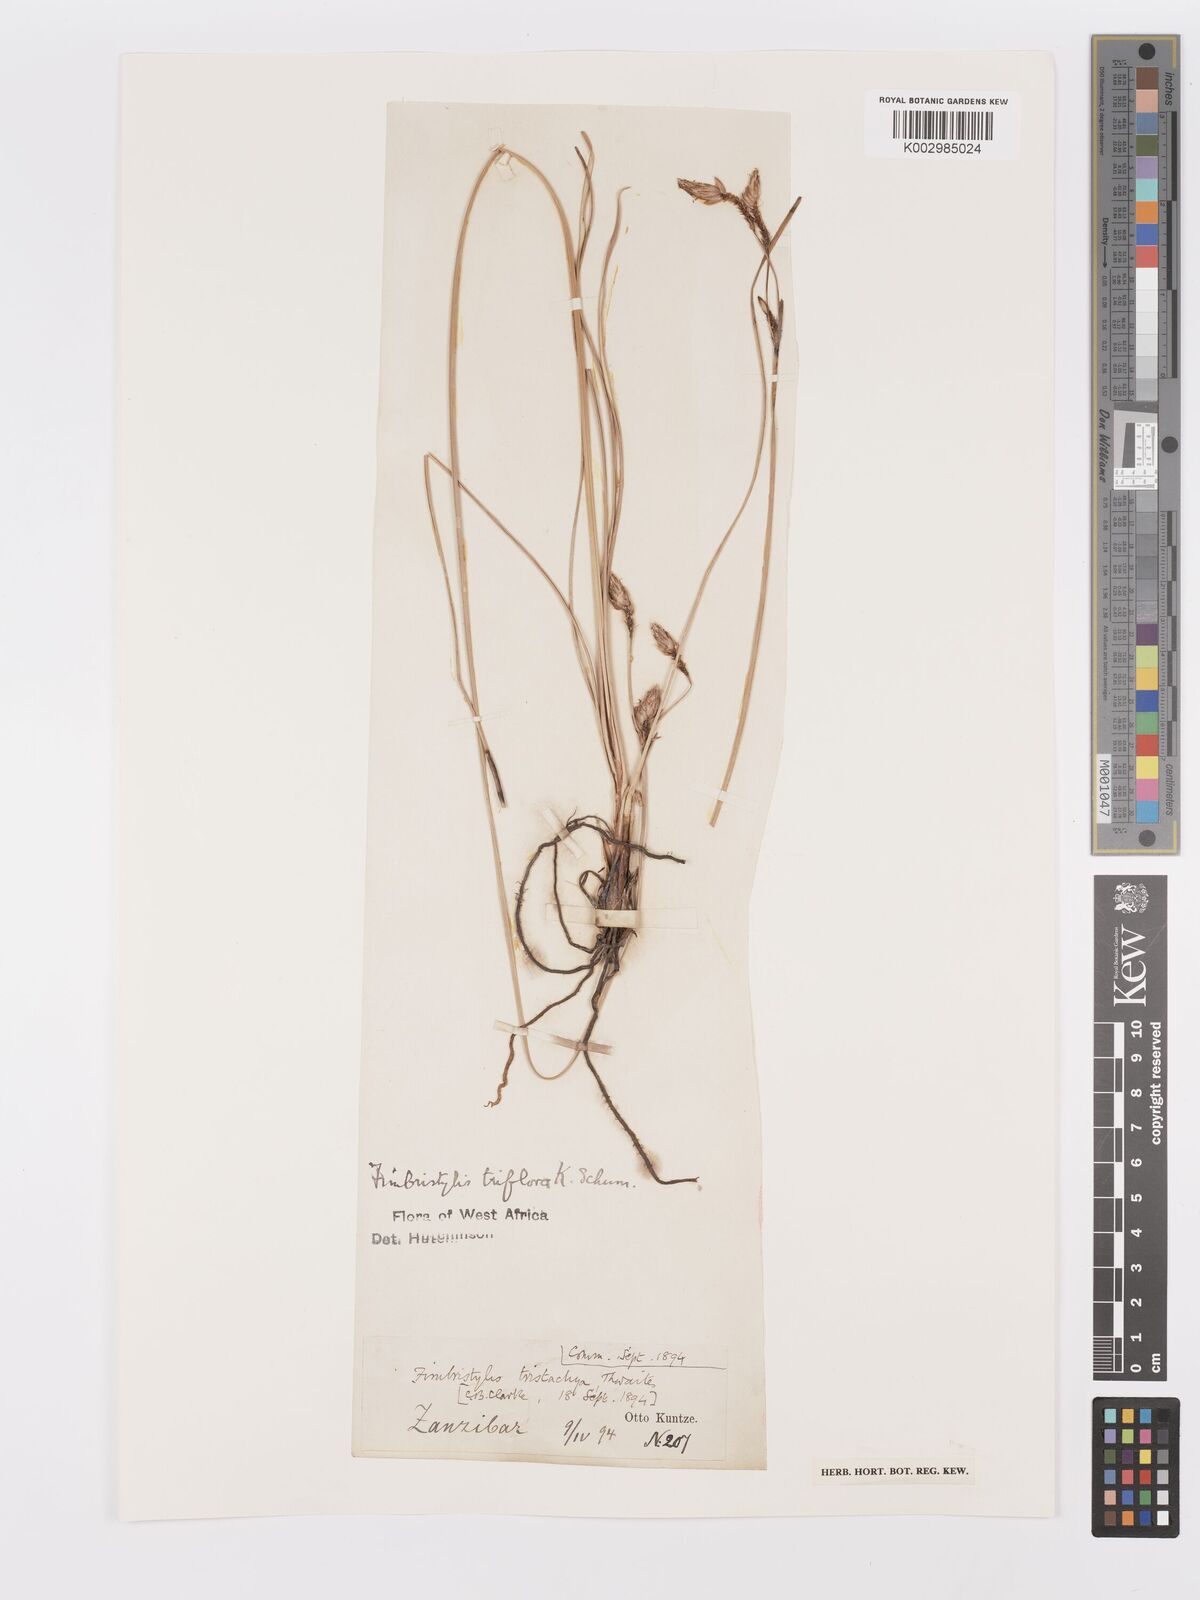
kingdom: Plantae
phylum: Tracheophyta
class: Liliopsida
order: Poales
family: Cyperaceae
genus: Abildgaardia
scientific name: Abildgaardia triflora
